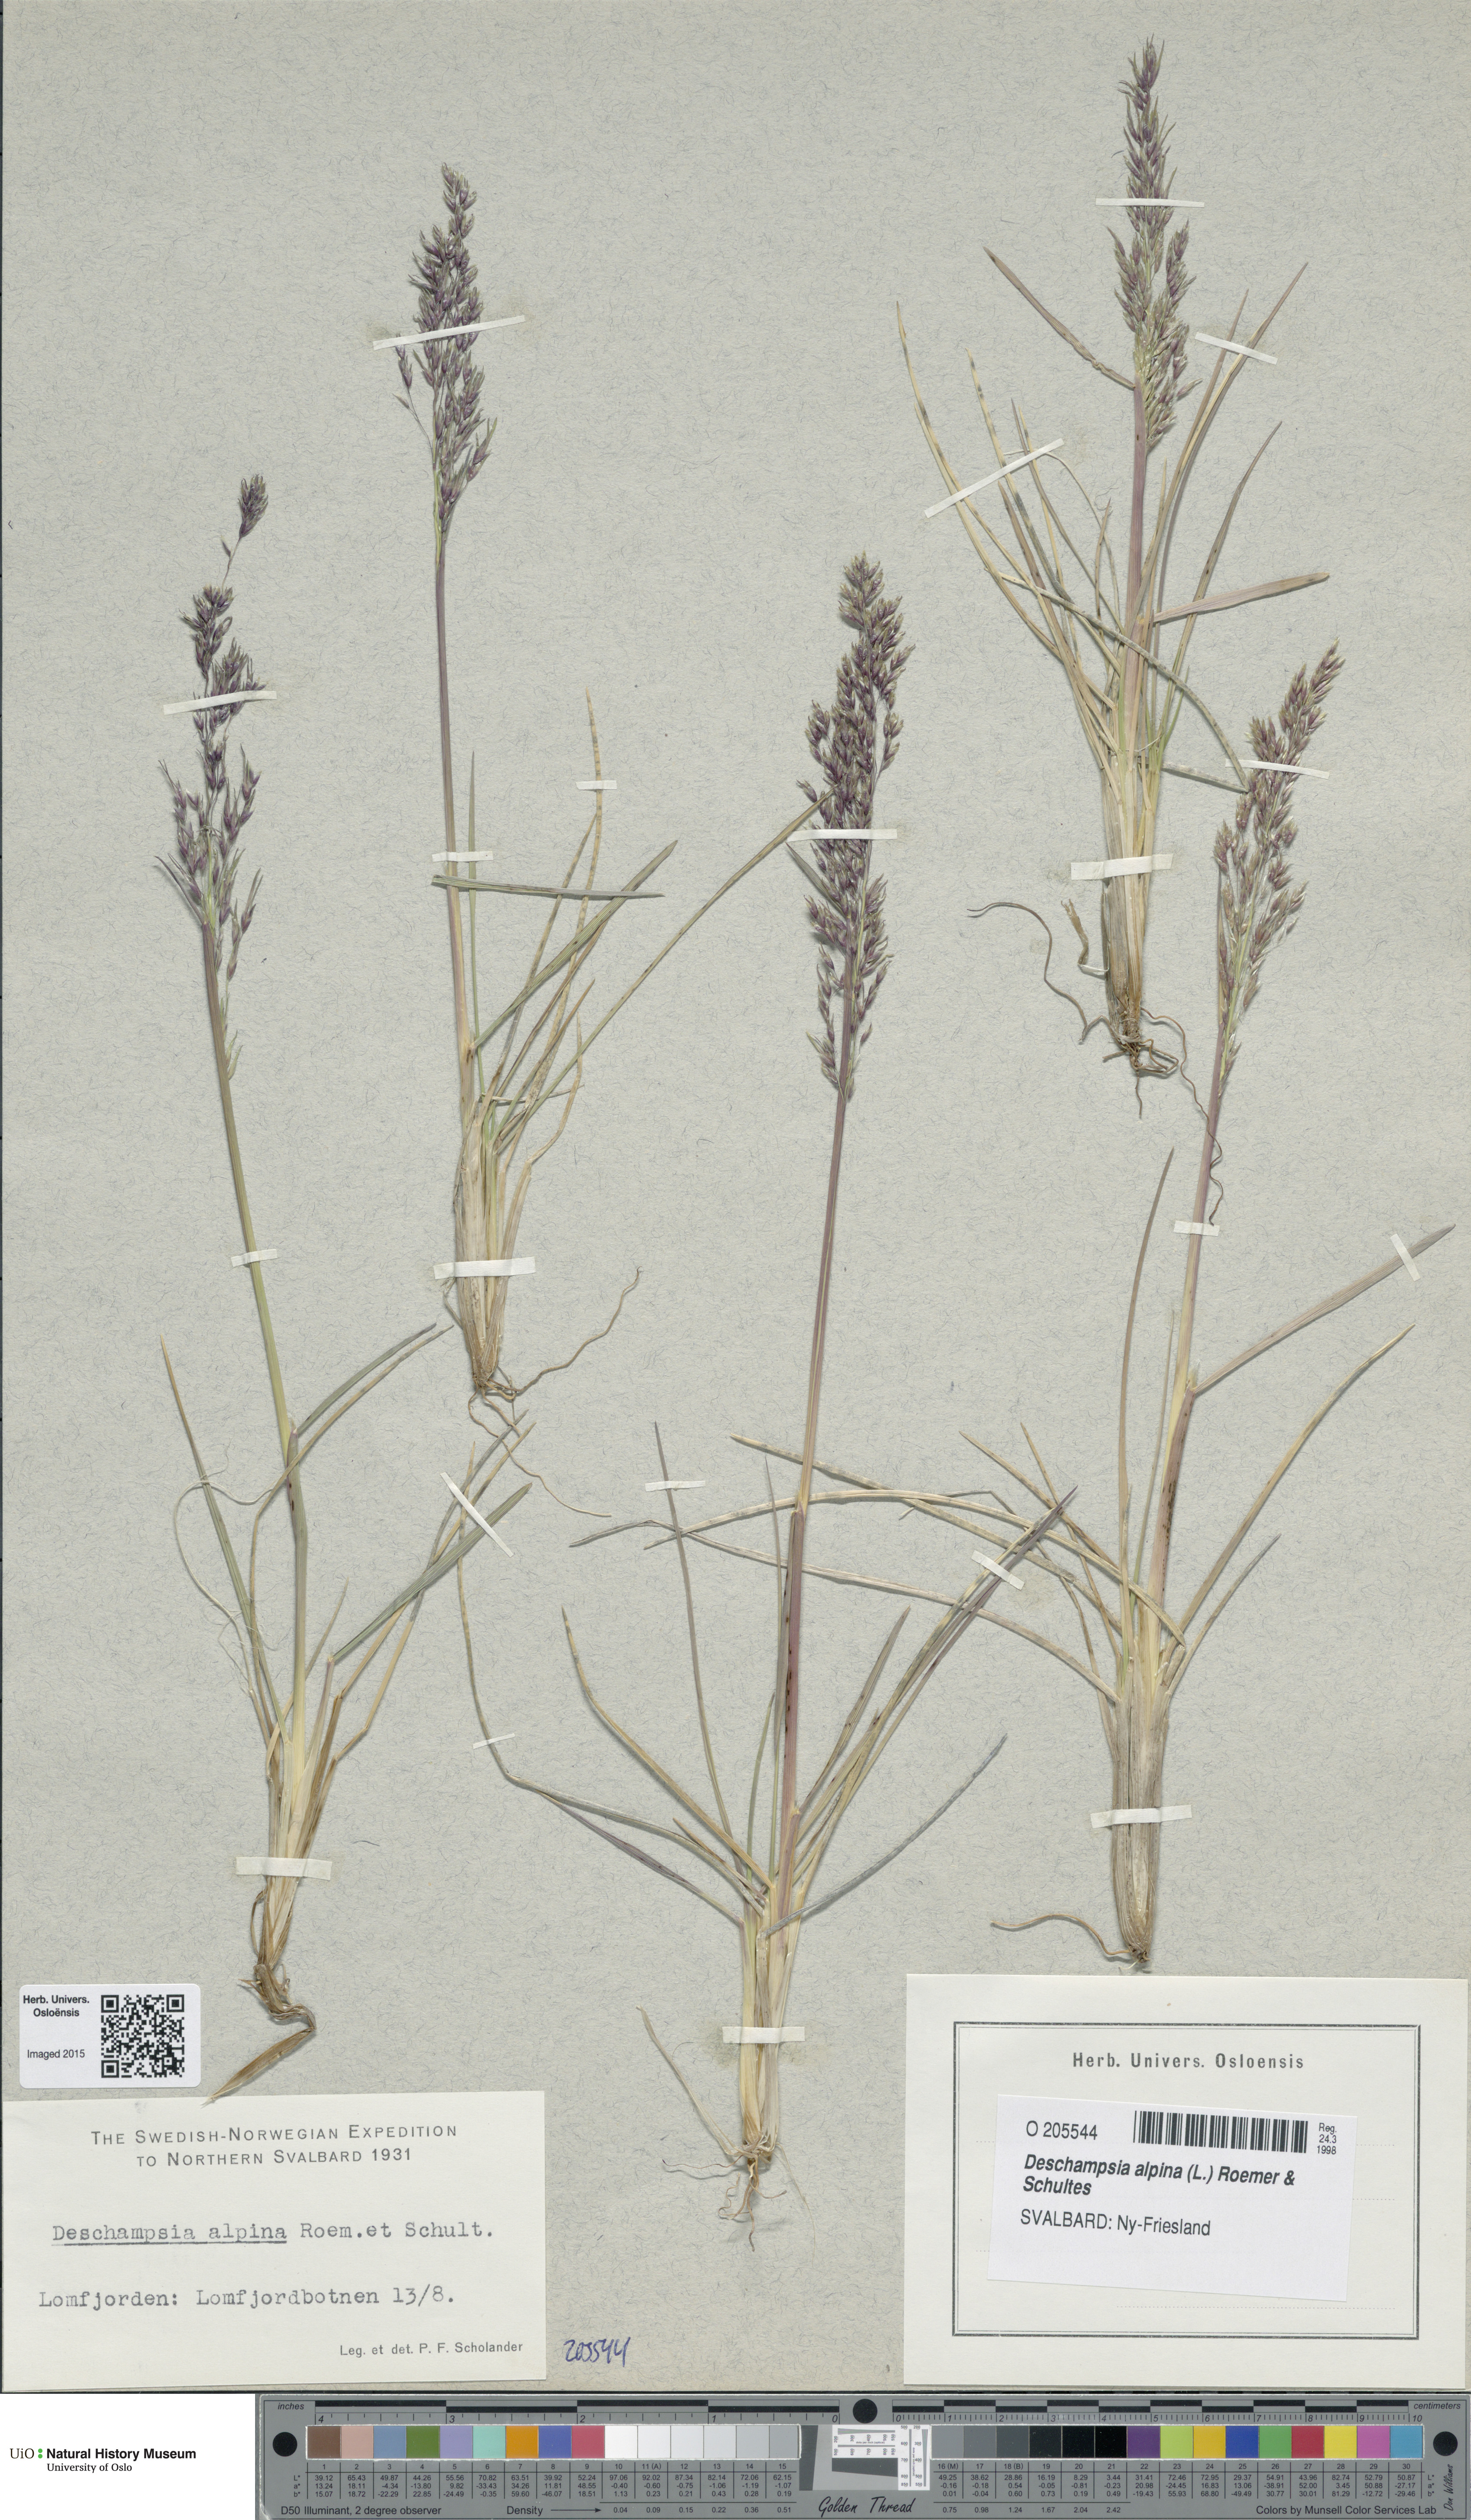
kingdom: Plantae
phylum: Tracheophyta
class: Liliopsida
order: Poales
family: Poaceae
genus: Deschampsia
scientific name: Deschampsia cespitosa
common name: Tufted hair-grass
